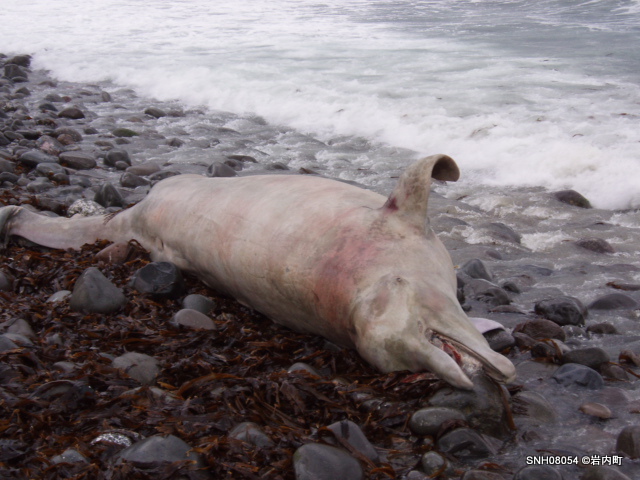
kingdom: Animalia
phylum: Chordata
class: Mammalia
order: Cetacea
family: Hyperoodontidae
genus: Berardius
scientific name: Berardius bairdii
